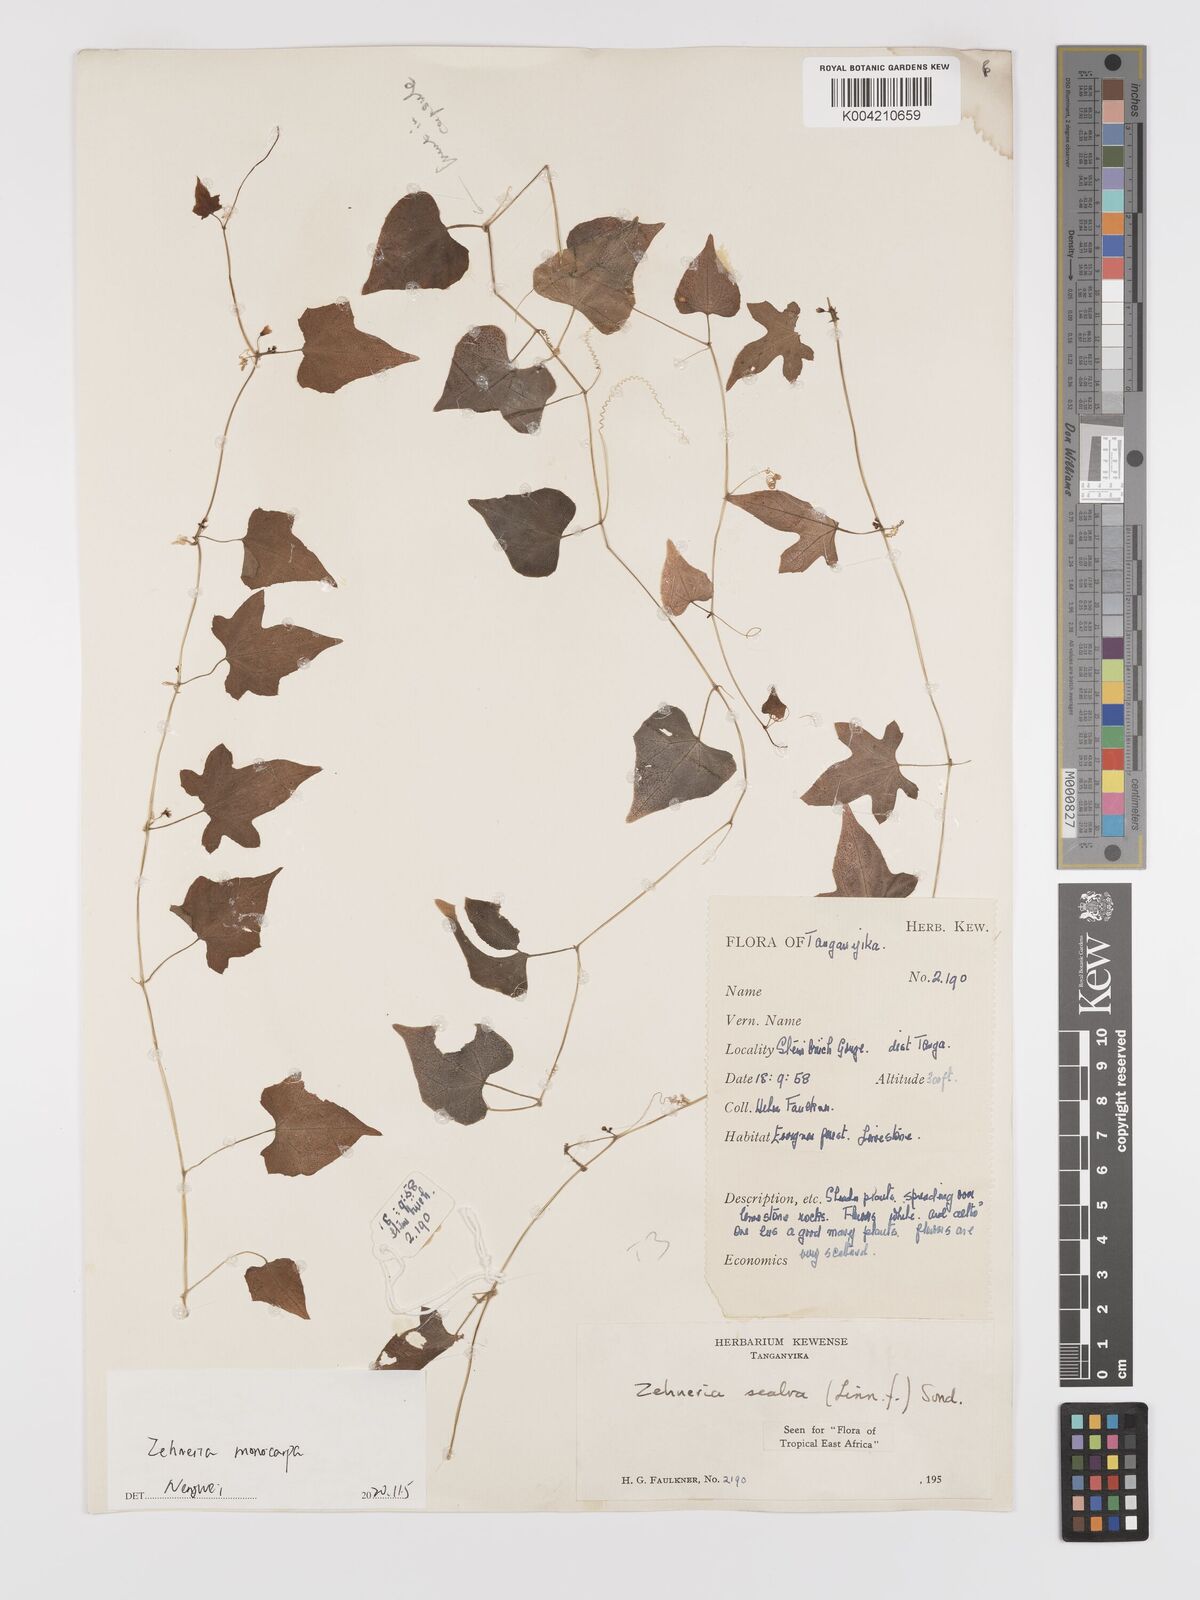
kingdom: Plantae
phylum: Tracheophyta
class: Magnoliopsida
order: Cucurbitales
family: Cucurbitaceae
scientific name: Cucurbitaceae
